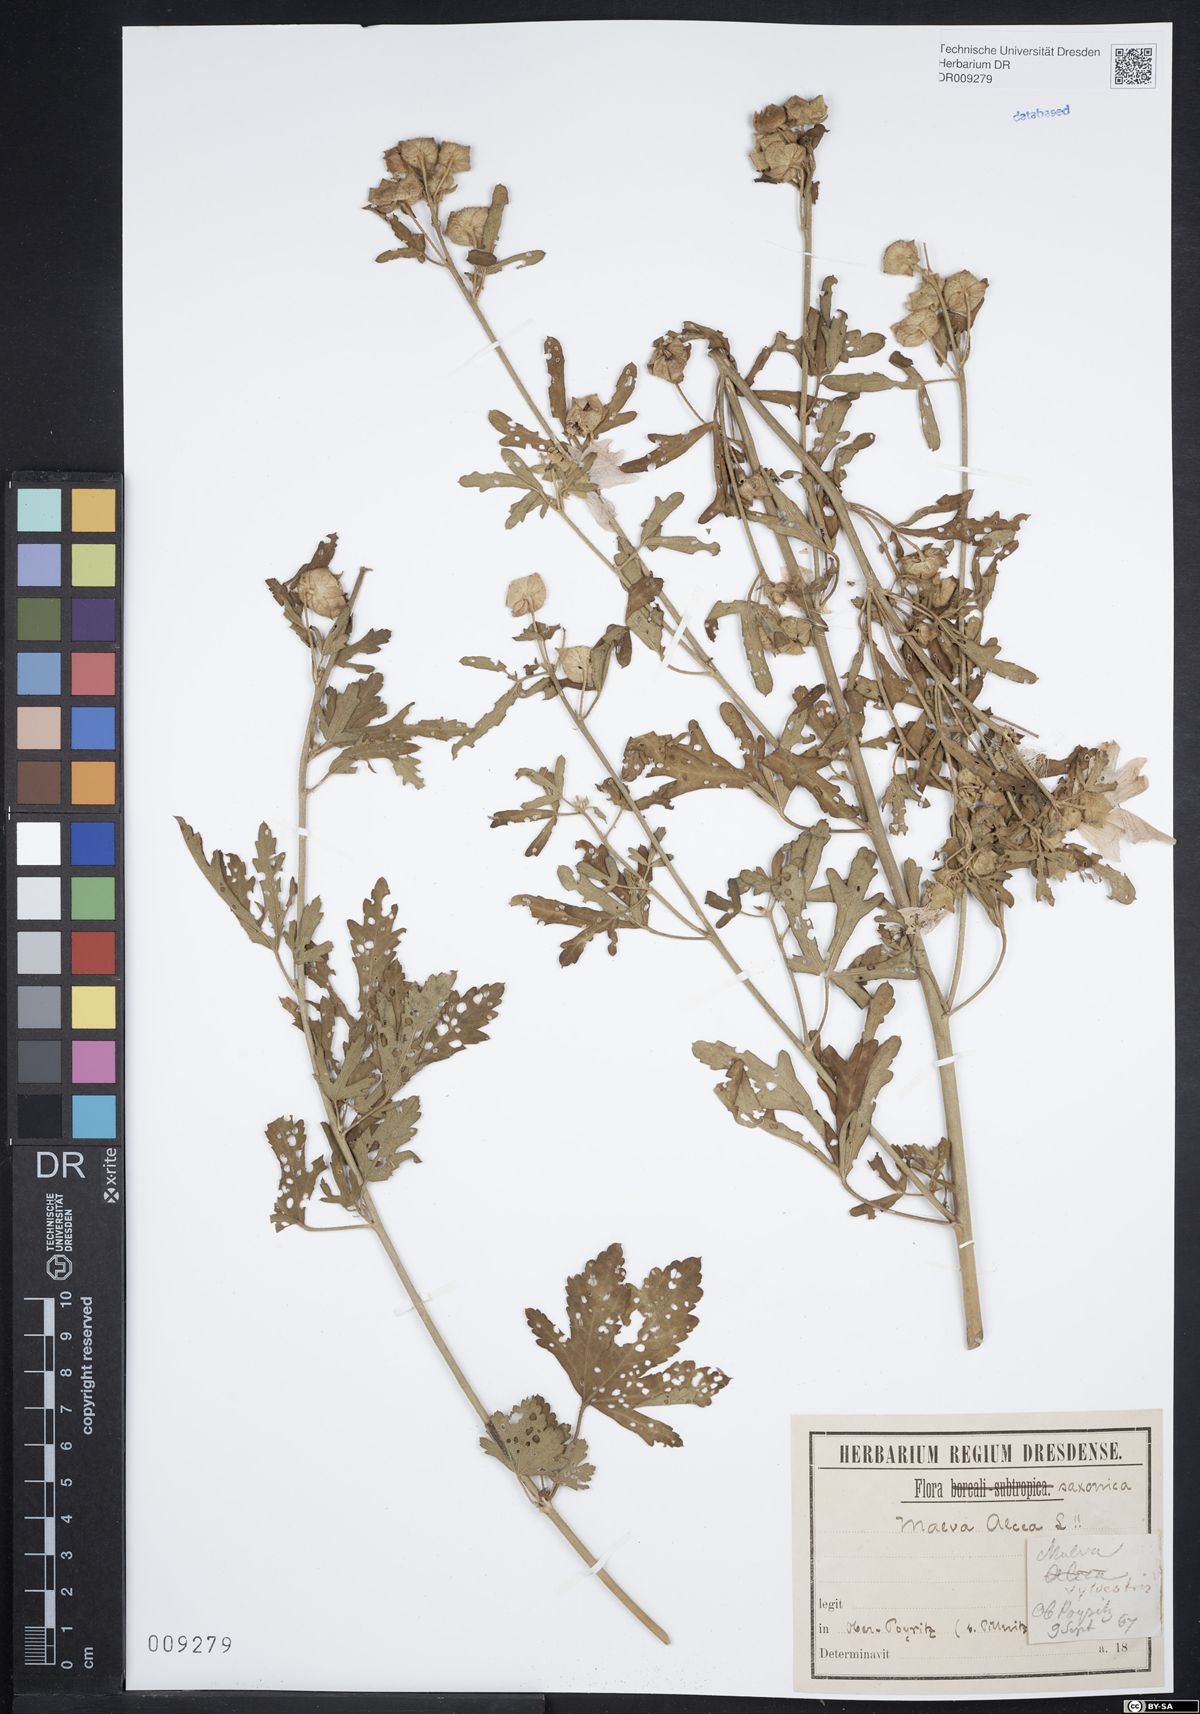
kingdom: Plantae
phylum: Tracheophyta
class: Magnoliopsida
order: Malvales
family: Malvaceae
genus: Malva
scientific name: Malva alcea
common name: Greater musk-mallow
